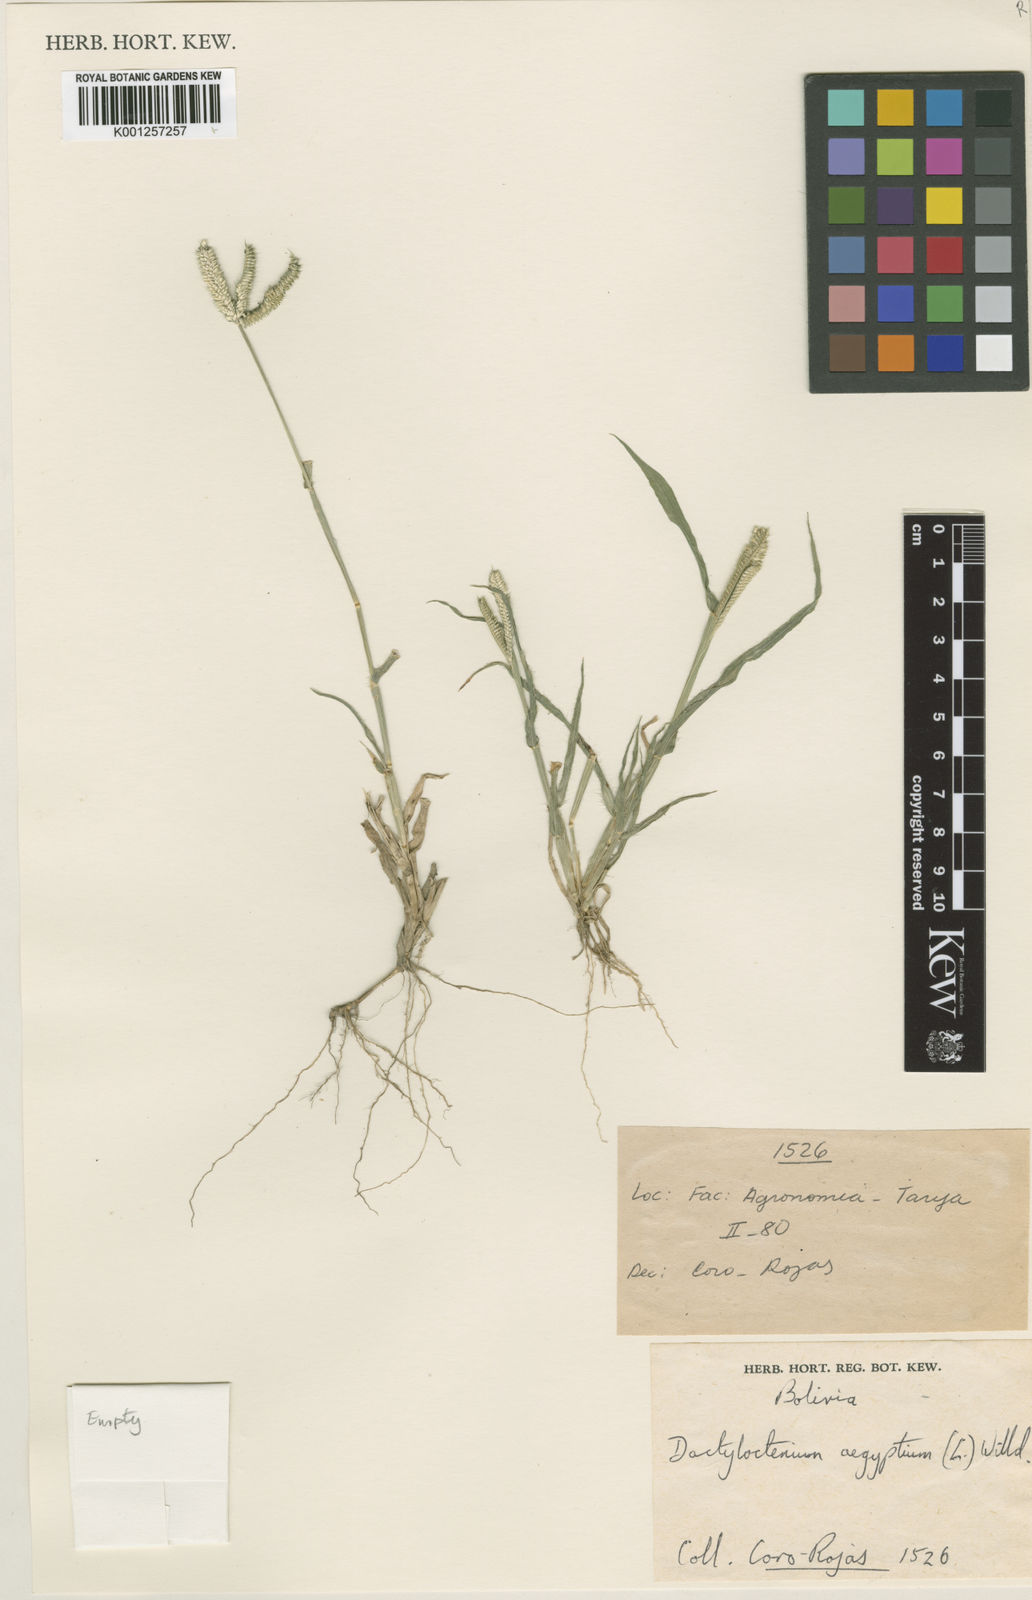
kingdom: Plantae
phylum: Tracheophyta
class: Liliopsida
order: Poales
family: Poaceae
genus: Dactyloctenium
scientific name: Dactyloctenium aegyptium
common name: Egyptian grass
